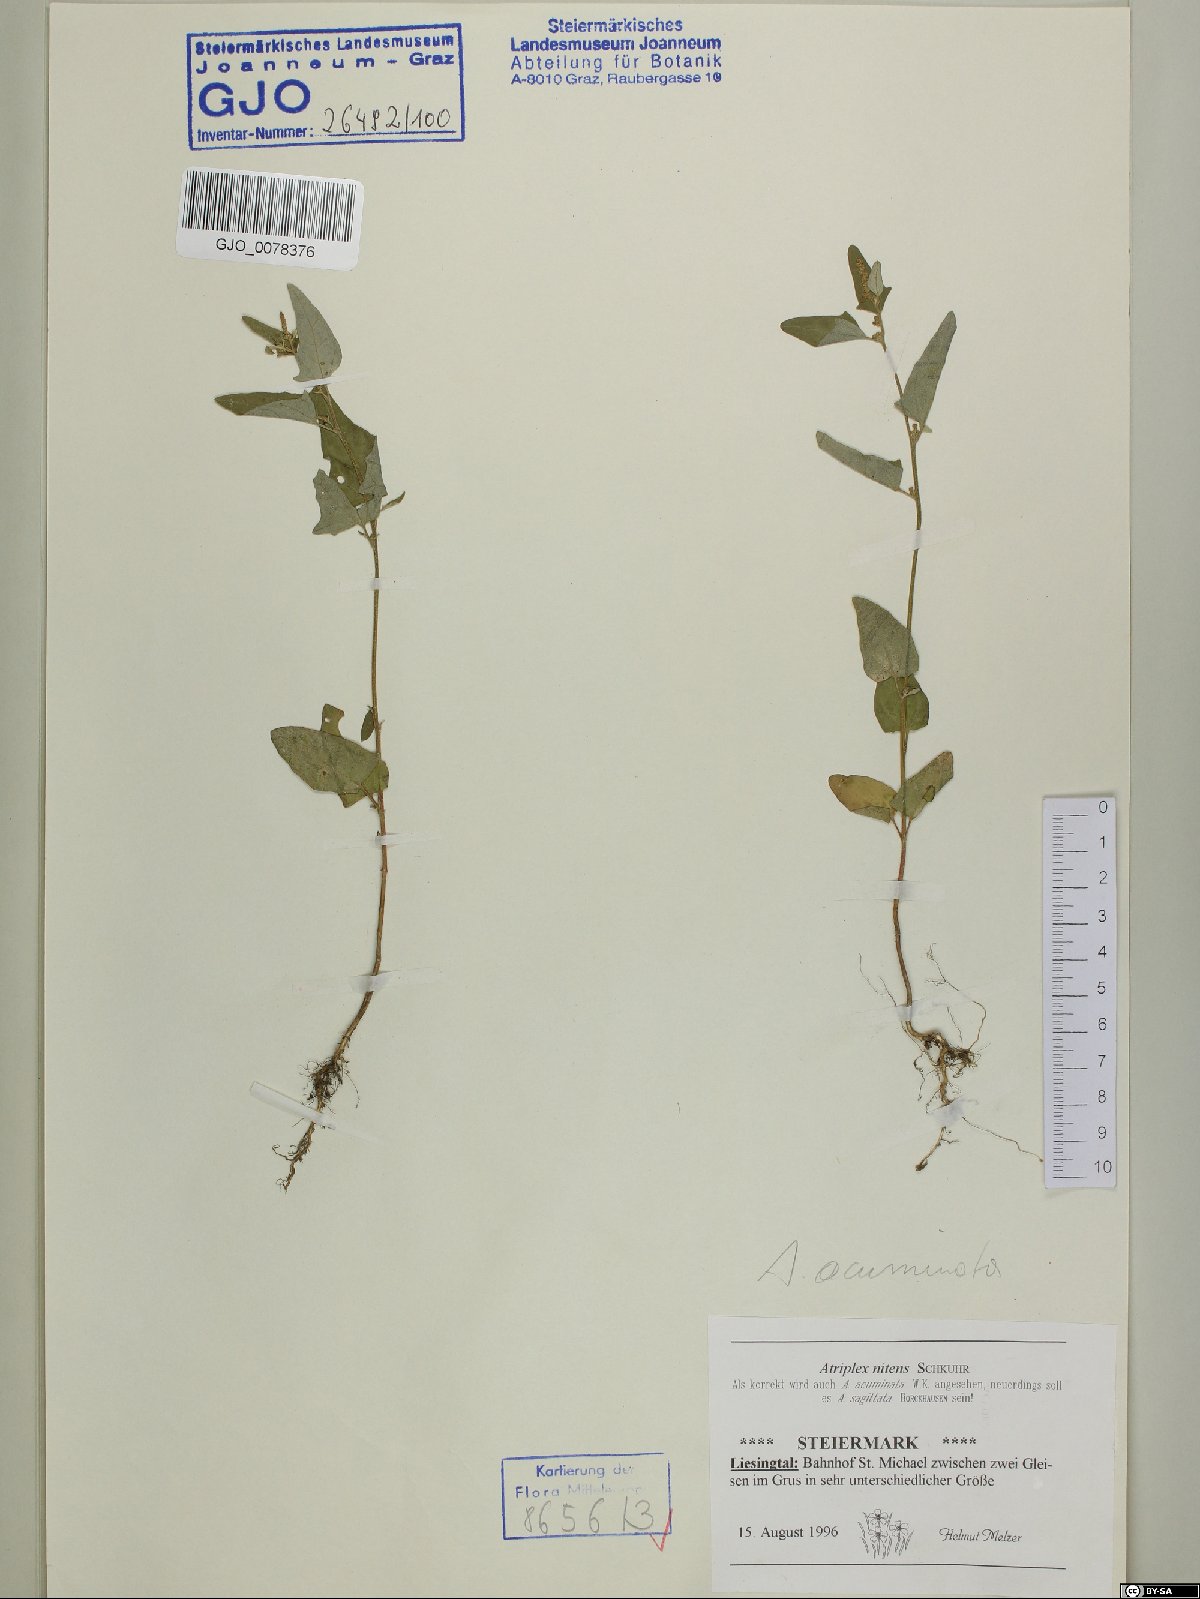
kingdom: Plantae
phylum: Tracheophyta
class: Magnoliopsida
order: Caryophyllales
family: Amaranthaceae
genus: Atriplex
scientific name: Atriplex sagittata
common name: Purple orache
